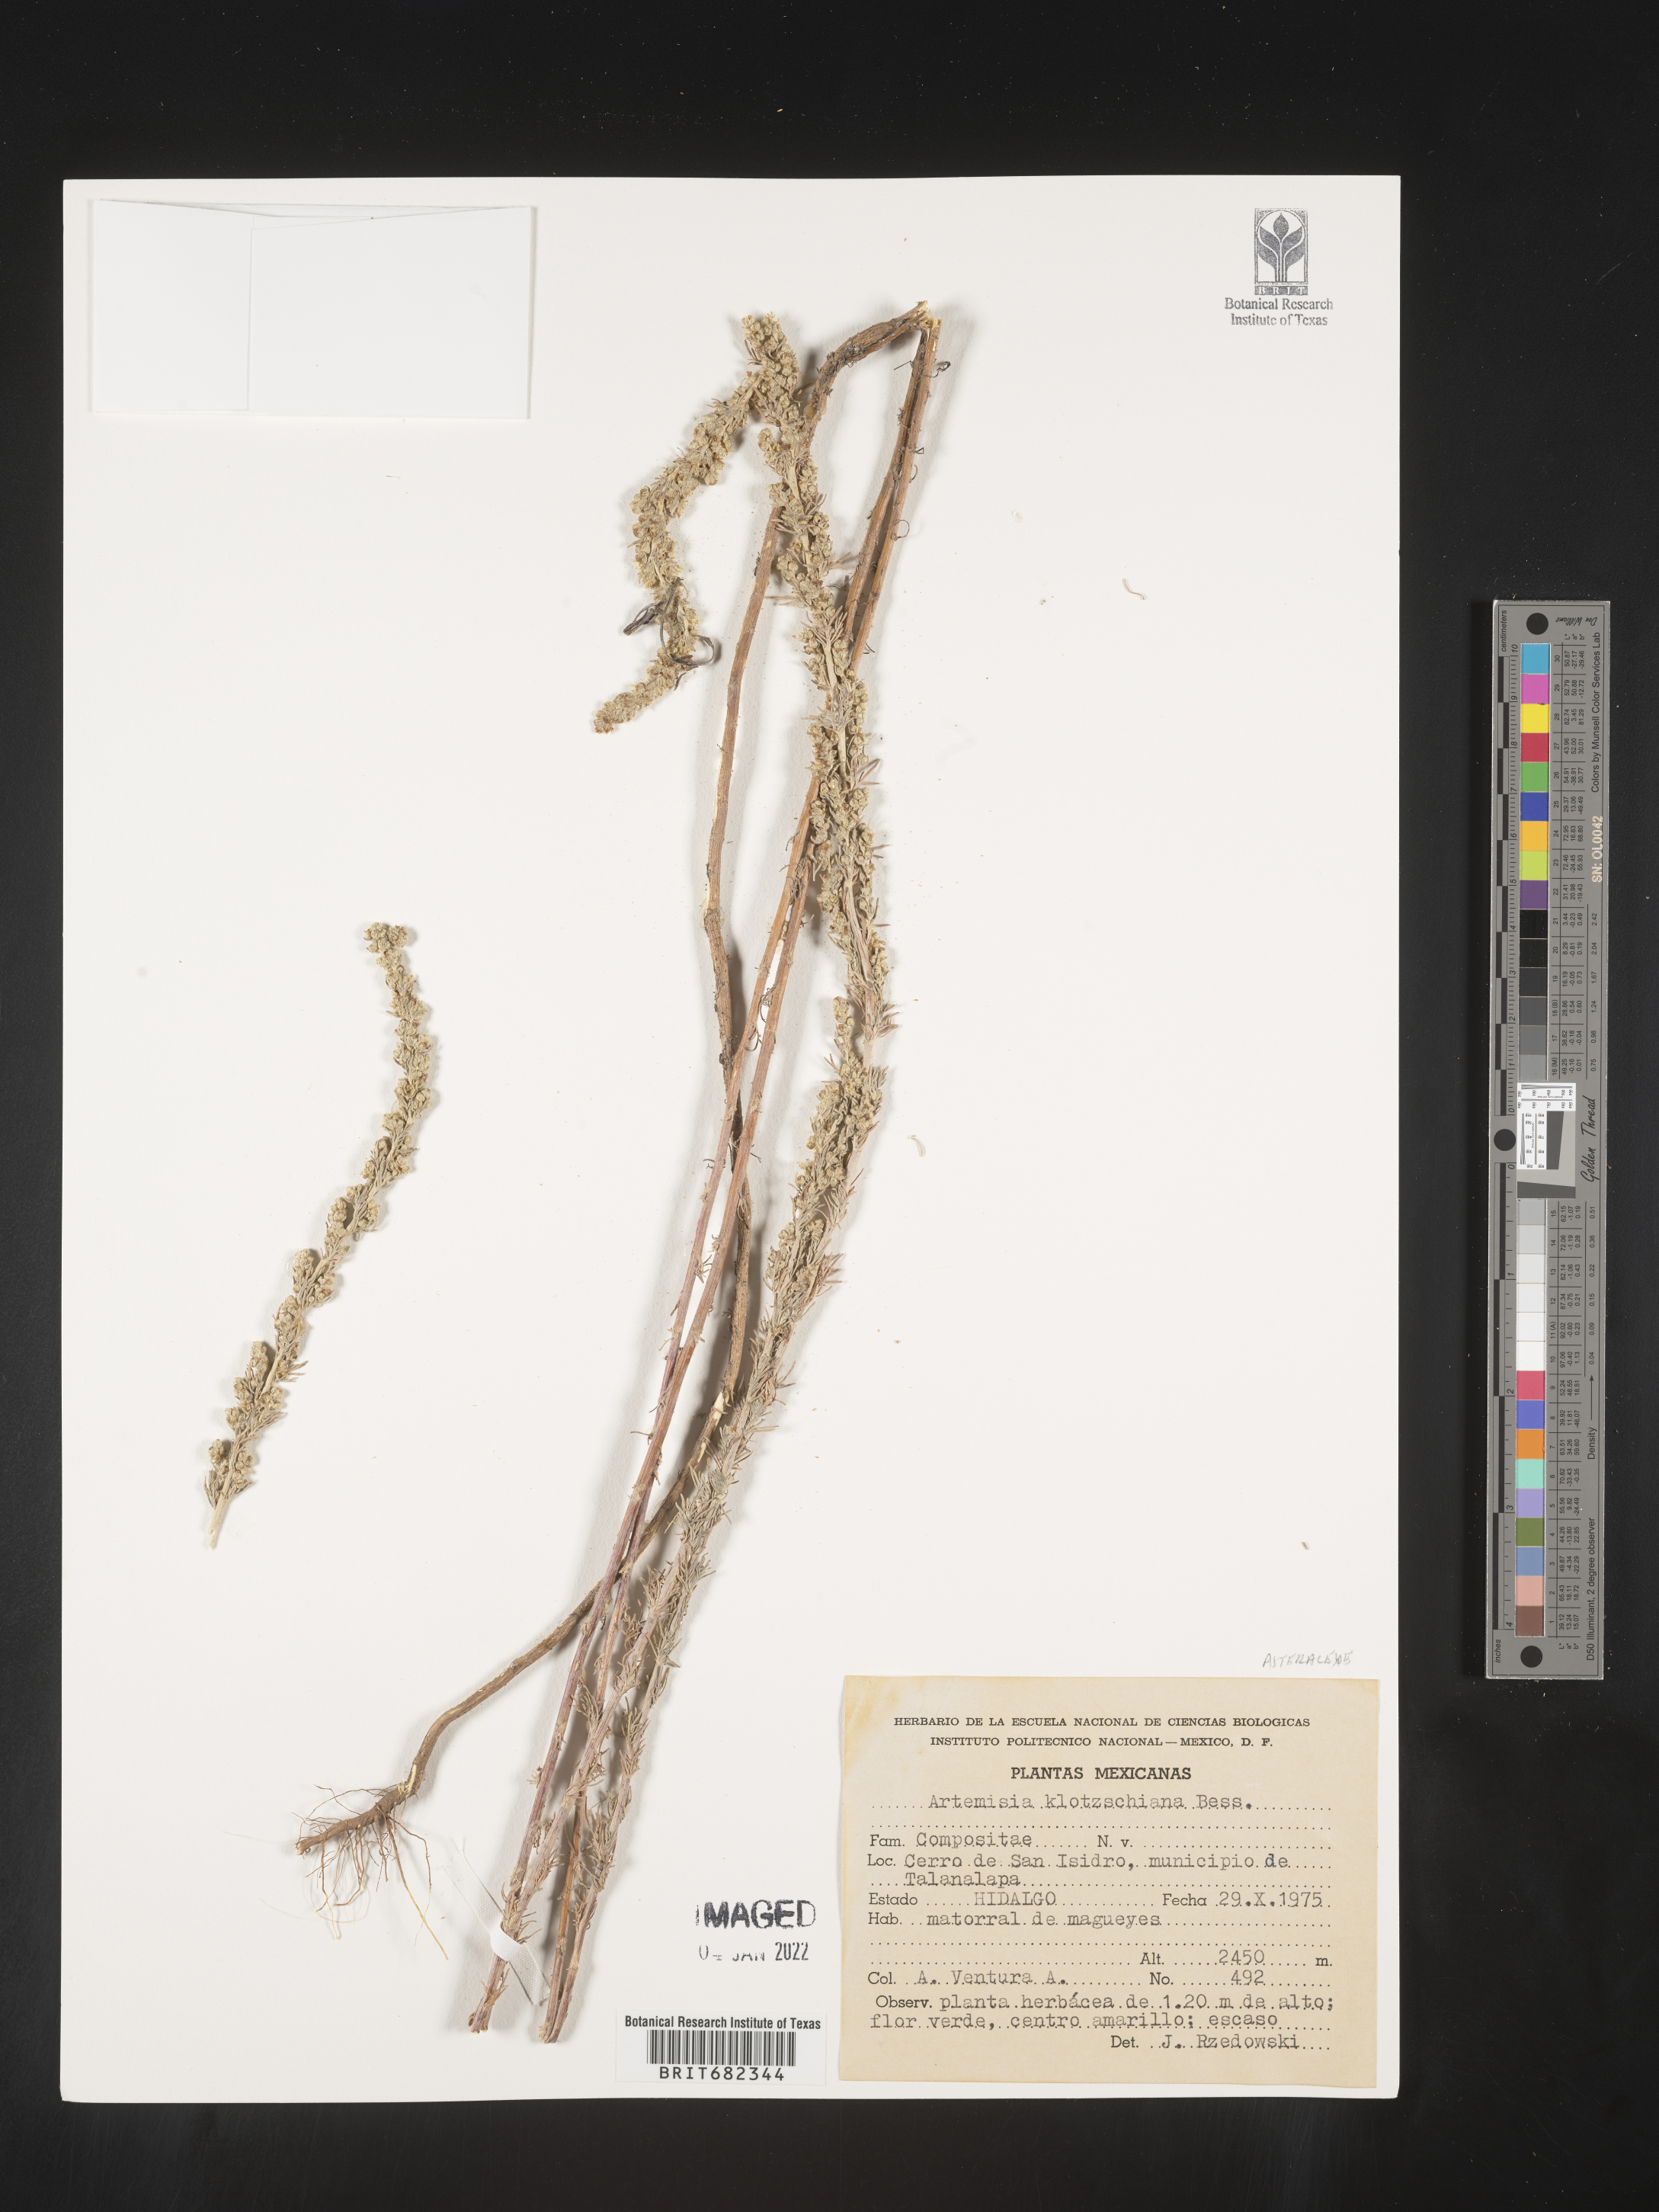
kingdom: Plantae
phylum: Tracheophyta
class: Magnoliopsida
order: Asterales
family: Asteraceae
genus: Artemisia
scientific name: Artemisia
